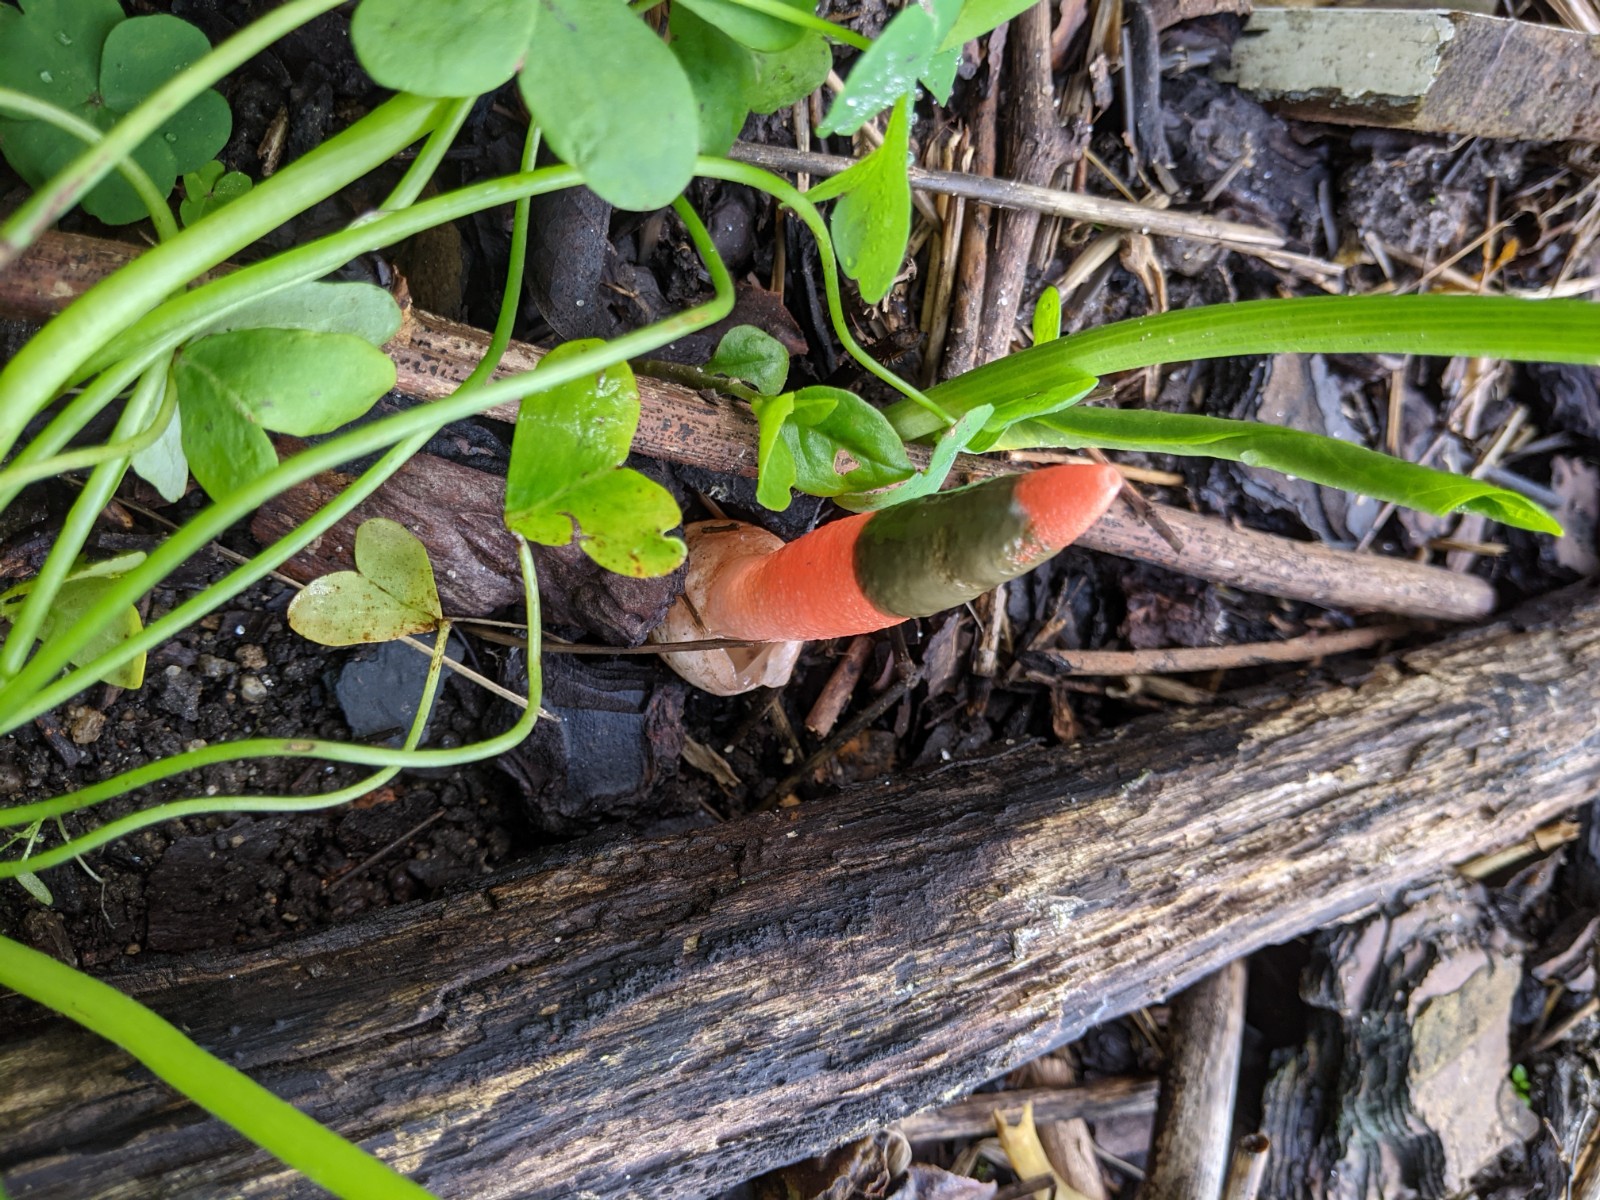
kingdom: Fungi
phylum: Basidiomycota
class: Agaricomycetes
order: Phallales
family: Phallaceae
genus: Mutinus
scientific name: Mutinus
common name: stinksvamp
